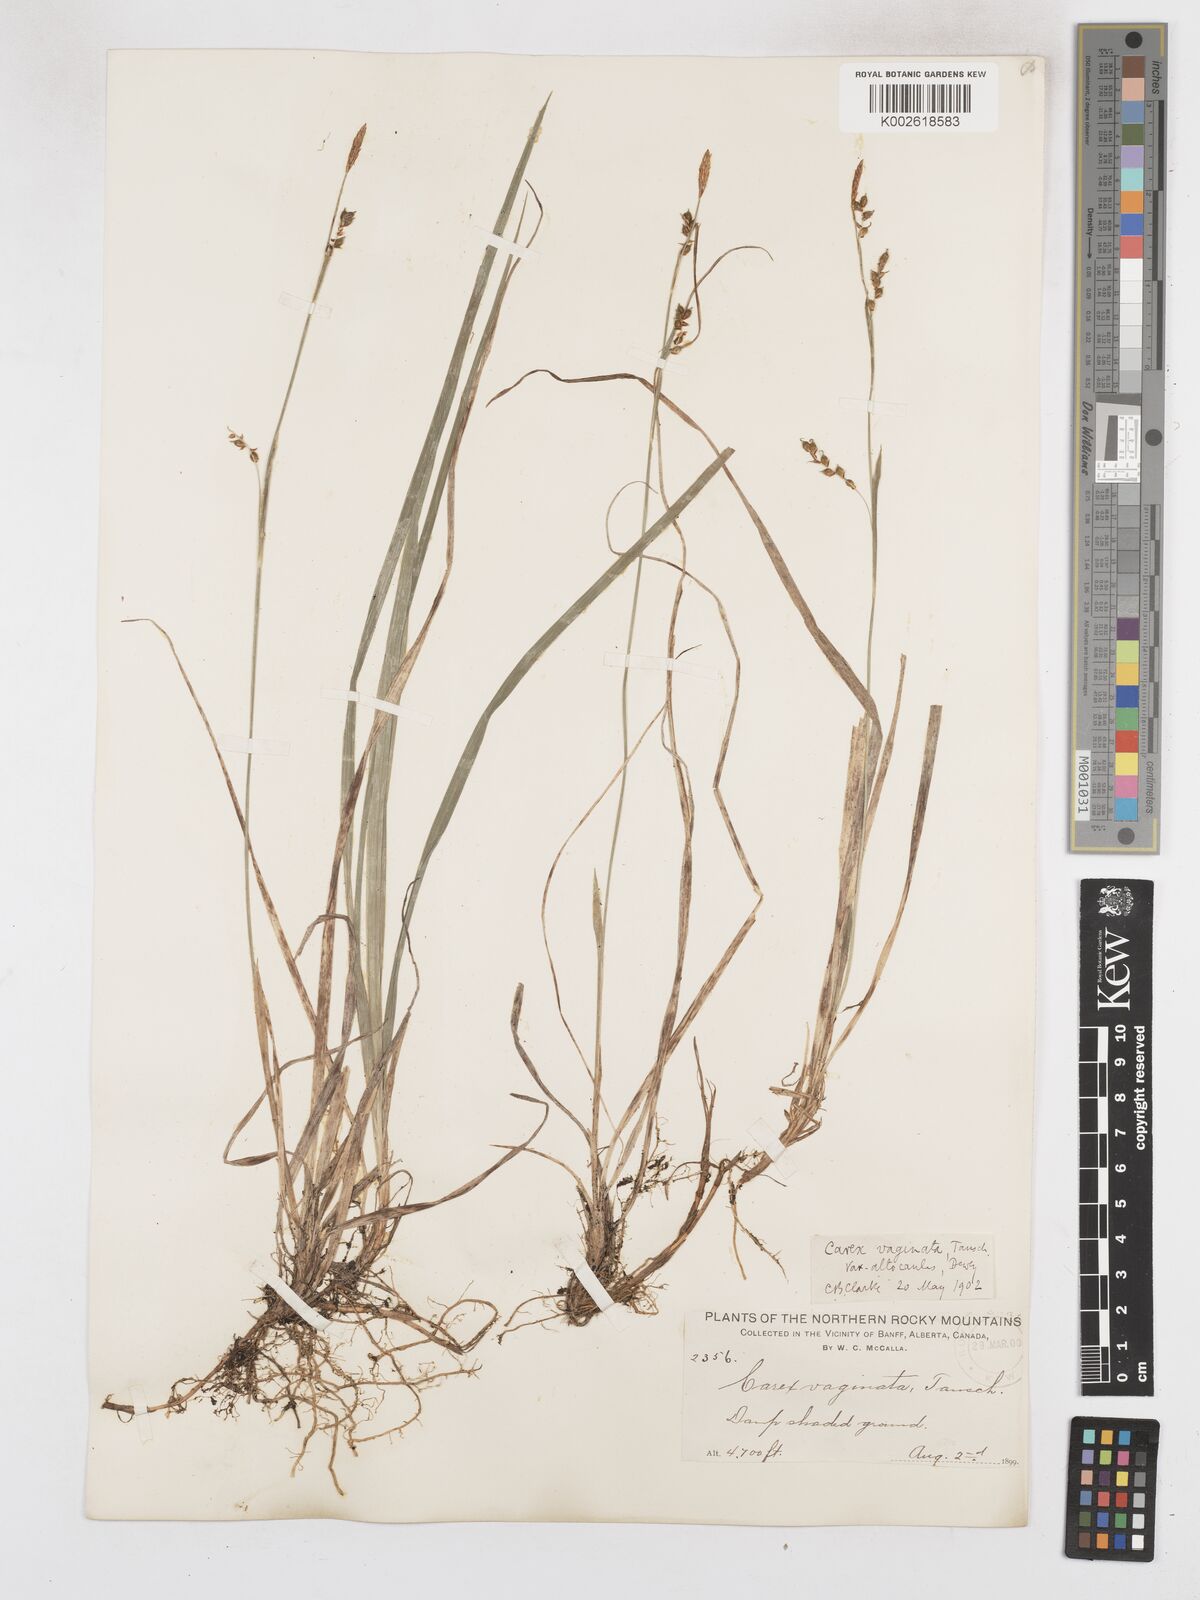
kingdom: Plantae
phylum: Tracheophyta
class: Liliopsida
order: Poales
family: Cyperaceae
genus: Carex
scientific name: Carex vaginata
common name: Sheathed sedge
